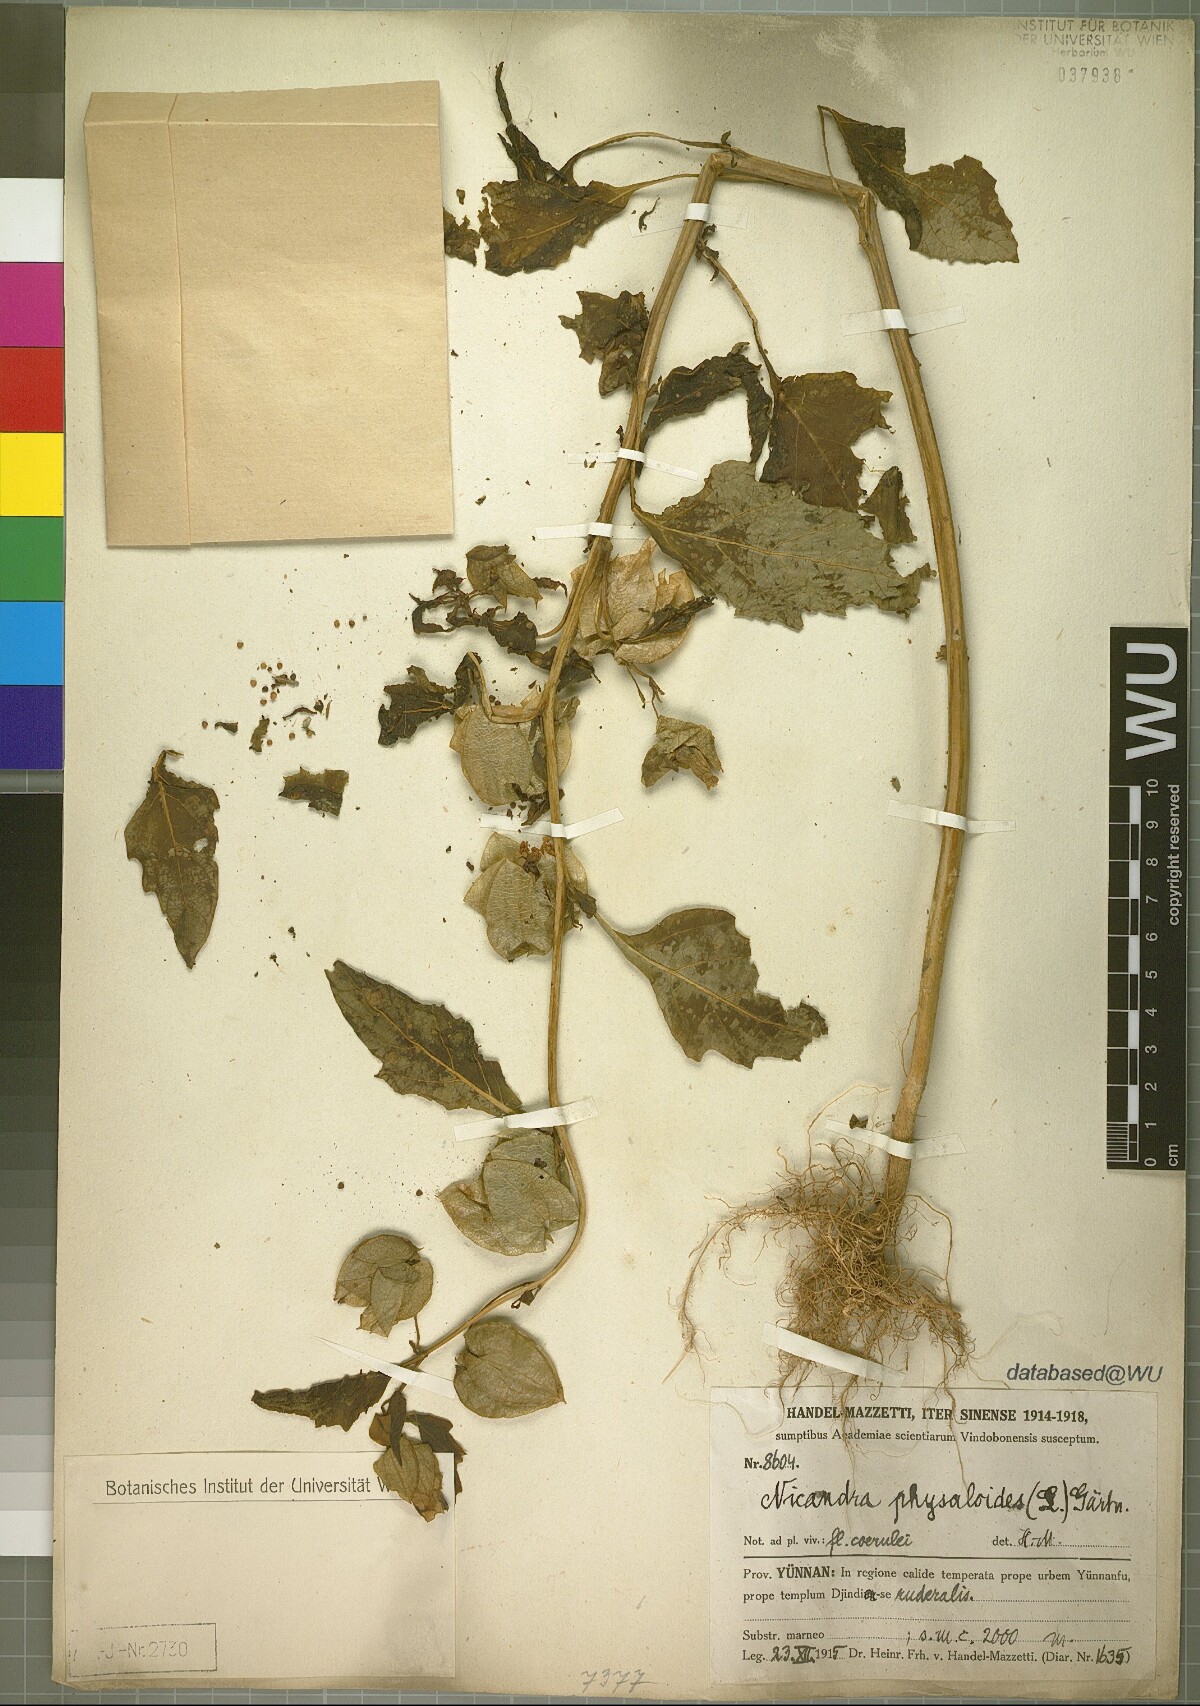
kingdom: Plantae
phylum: Tracheophyta
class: Magnoliopsida
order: Solanales
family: Solanaceae
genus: Nicandra
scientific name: Nicandra physalodes
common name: Apple-of-peru
